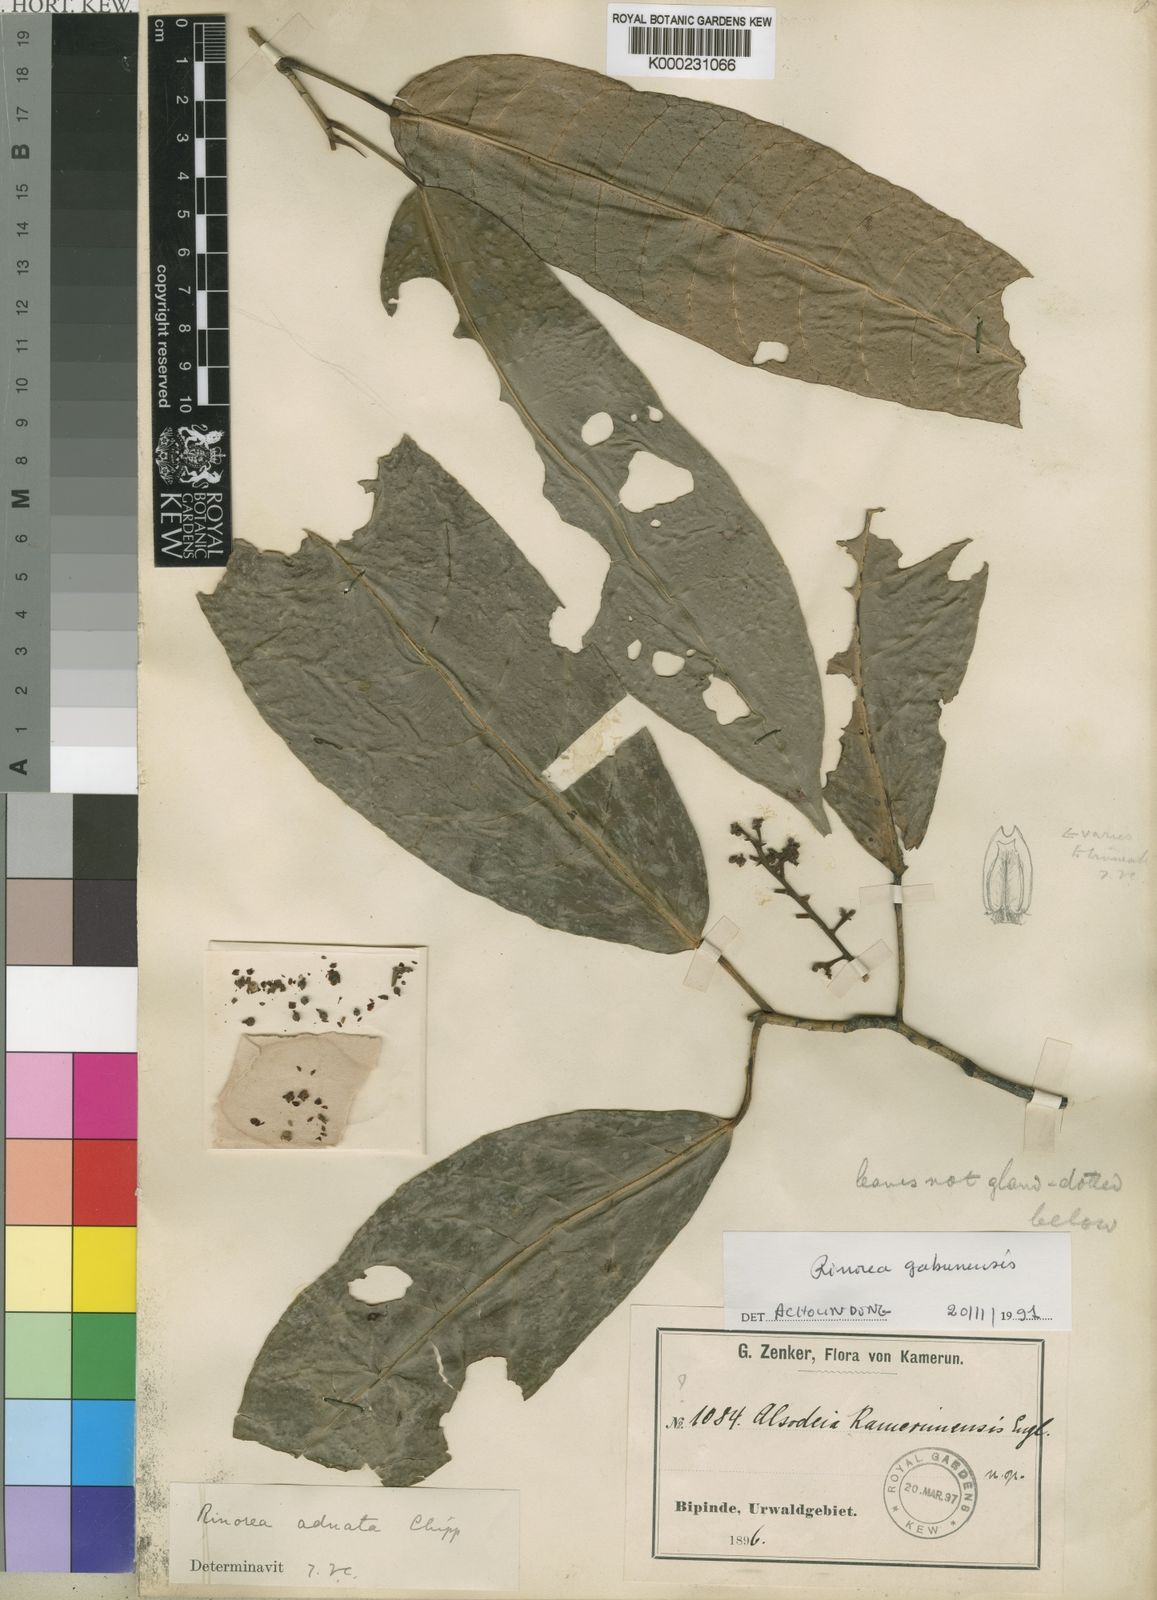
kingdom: Plantae
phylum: Tracheophyta
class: Magnoliopsida
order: Malpighiales
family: Violaceae
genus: Rinorea
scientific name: Rinorea gabunensis
